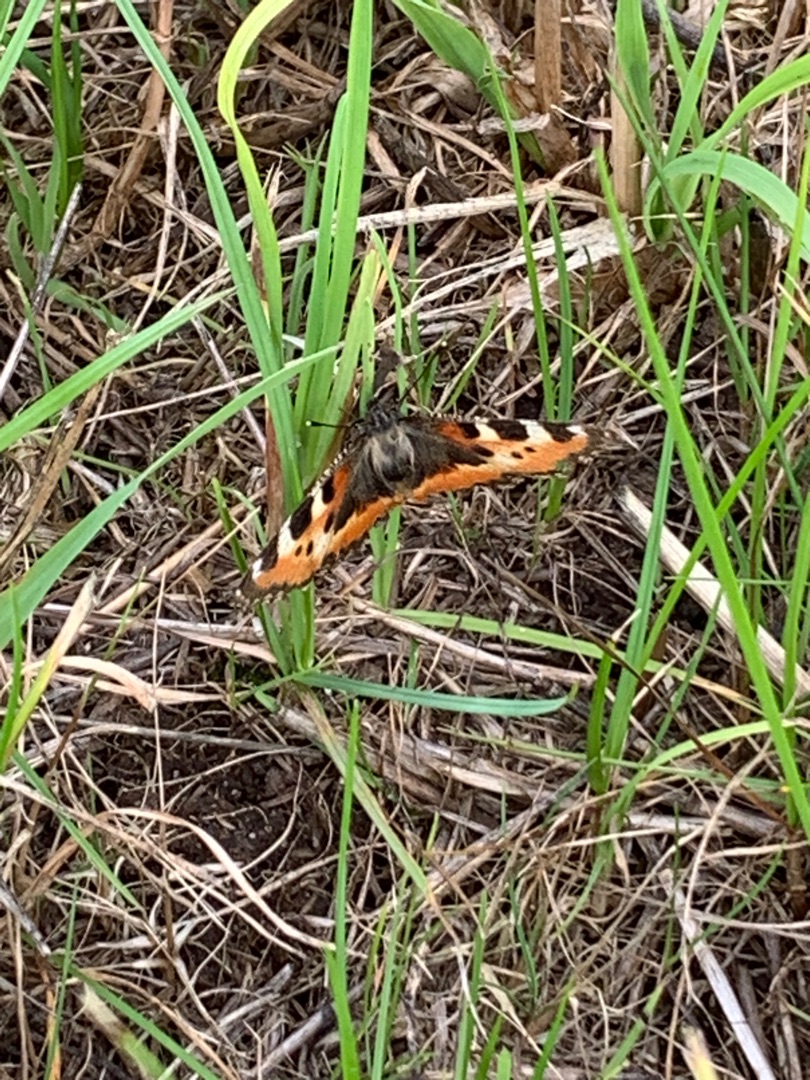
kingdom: Animalia
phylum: Arthropoda
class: Insecta
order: Lepidoptera
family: Nymphalidae
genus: Aglais
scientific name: Aglais urticae
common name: Nældens takvinge
